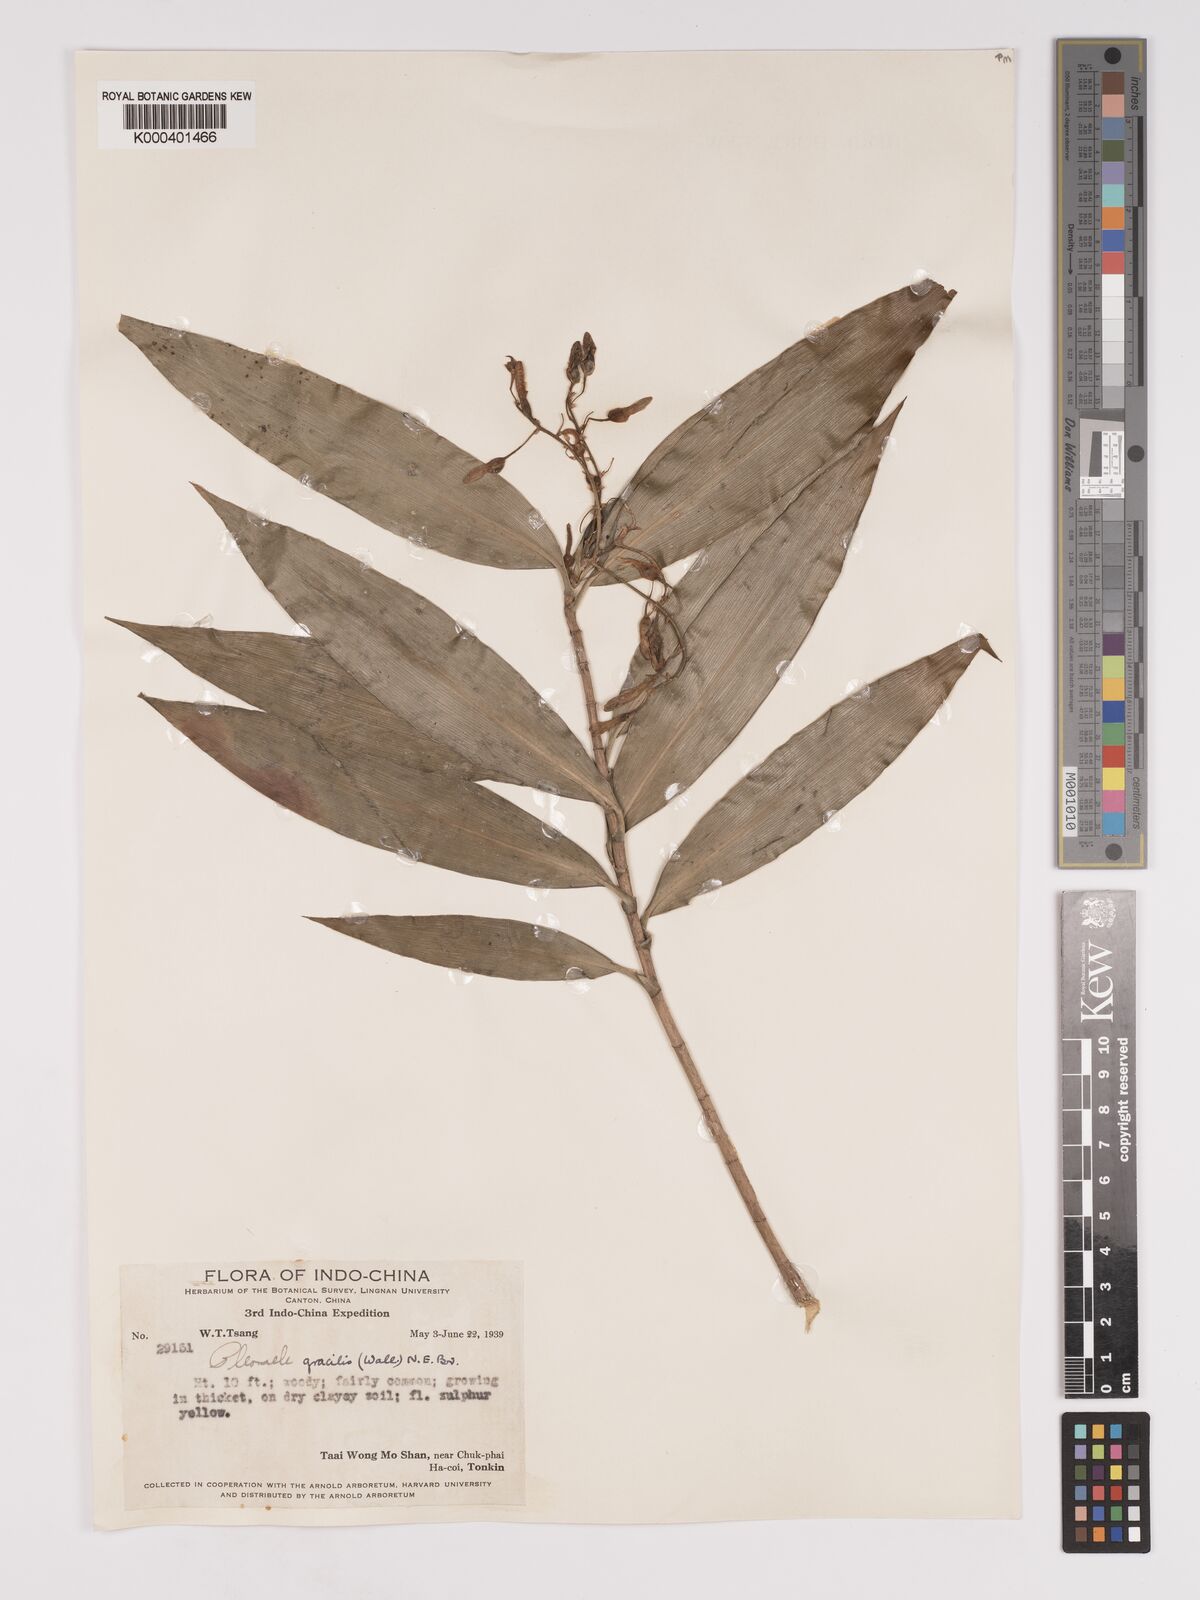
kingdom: Plantae
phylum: Tracheophyta
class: Liliopsida
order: Asparagales
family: Asparagaceae
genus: Dracaena
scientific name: Dracaena elliptica
